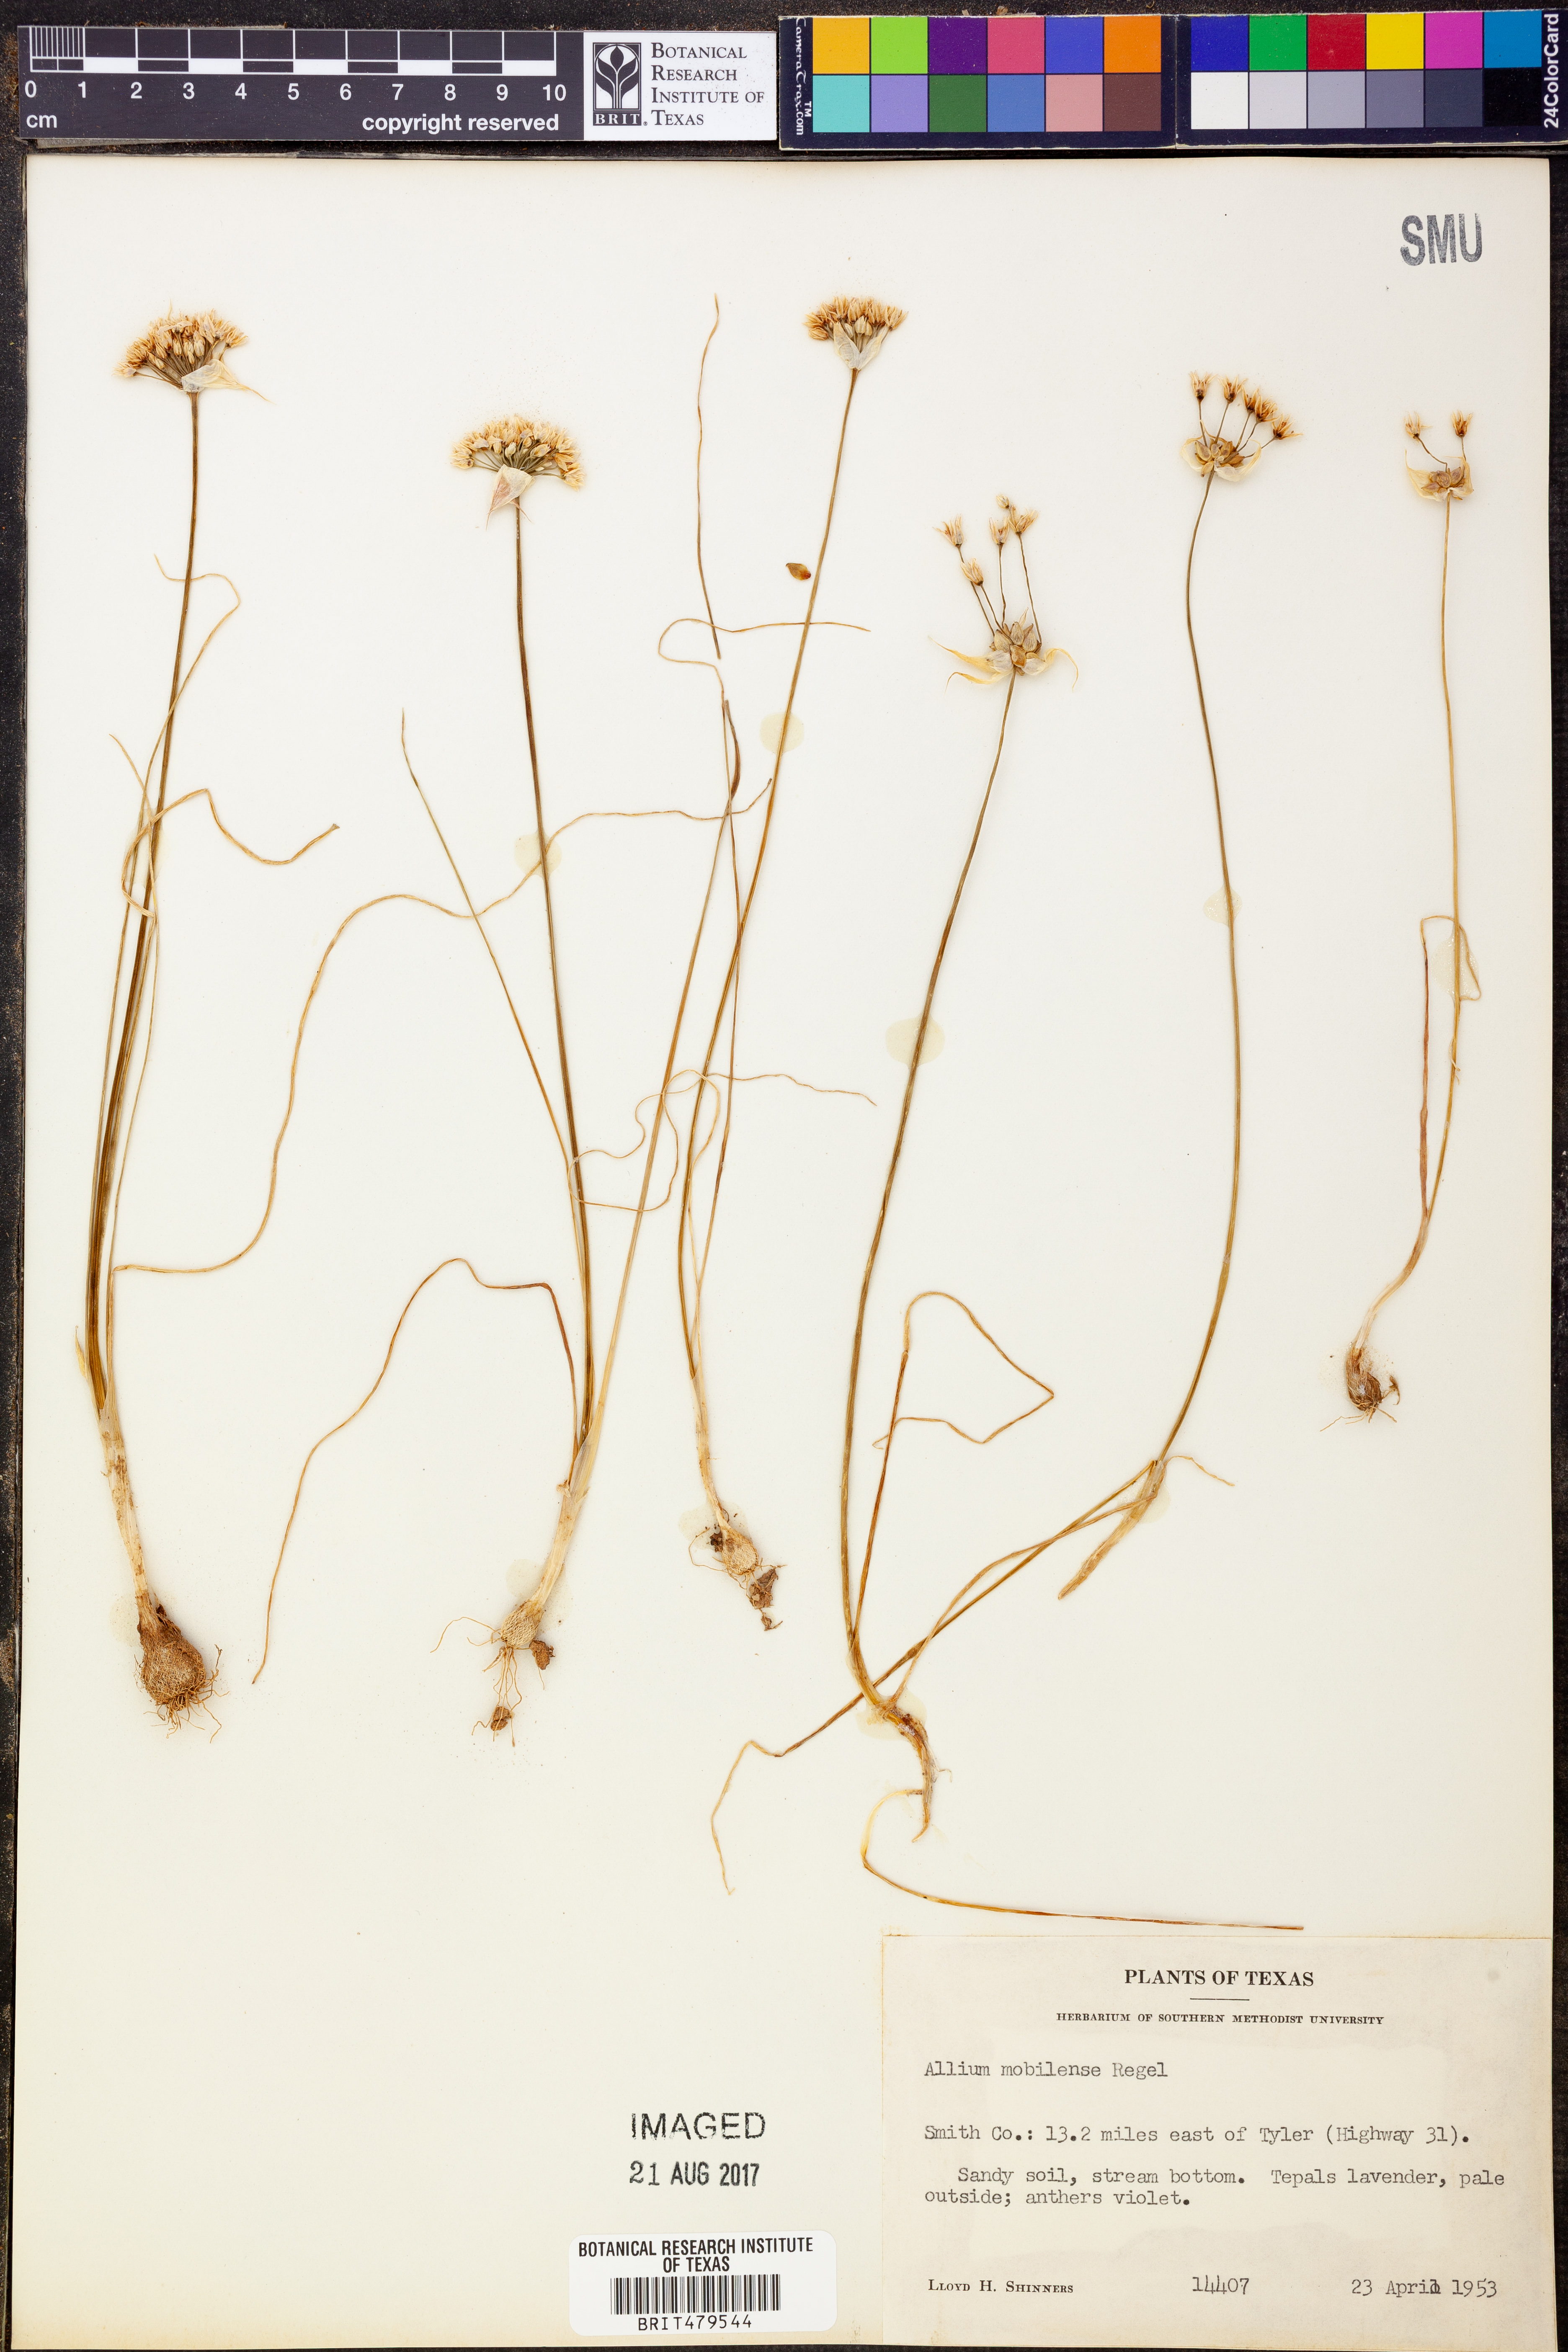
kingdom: Plantae
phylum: Tracheophyta
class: Liliopsida
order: Asparagales
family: Amaryllidaceae
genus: Allium
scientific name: Allium canadense
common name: Meadow garlic
